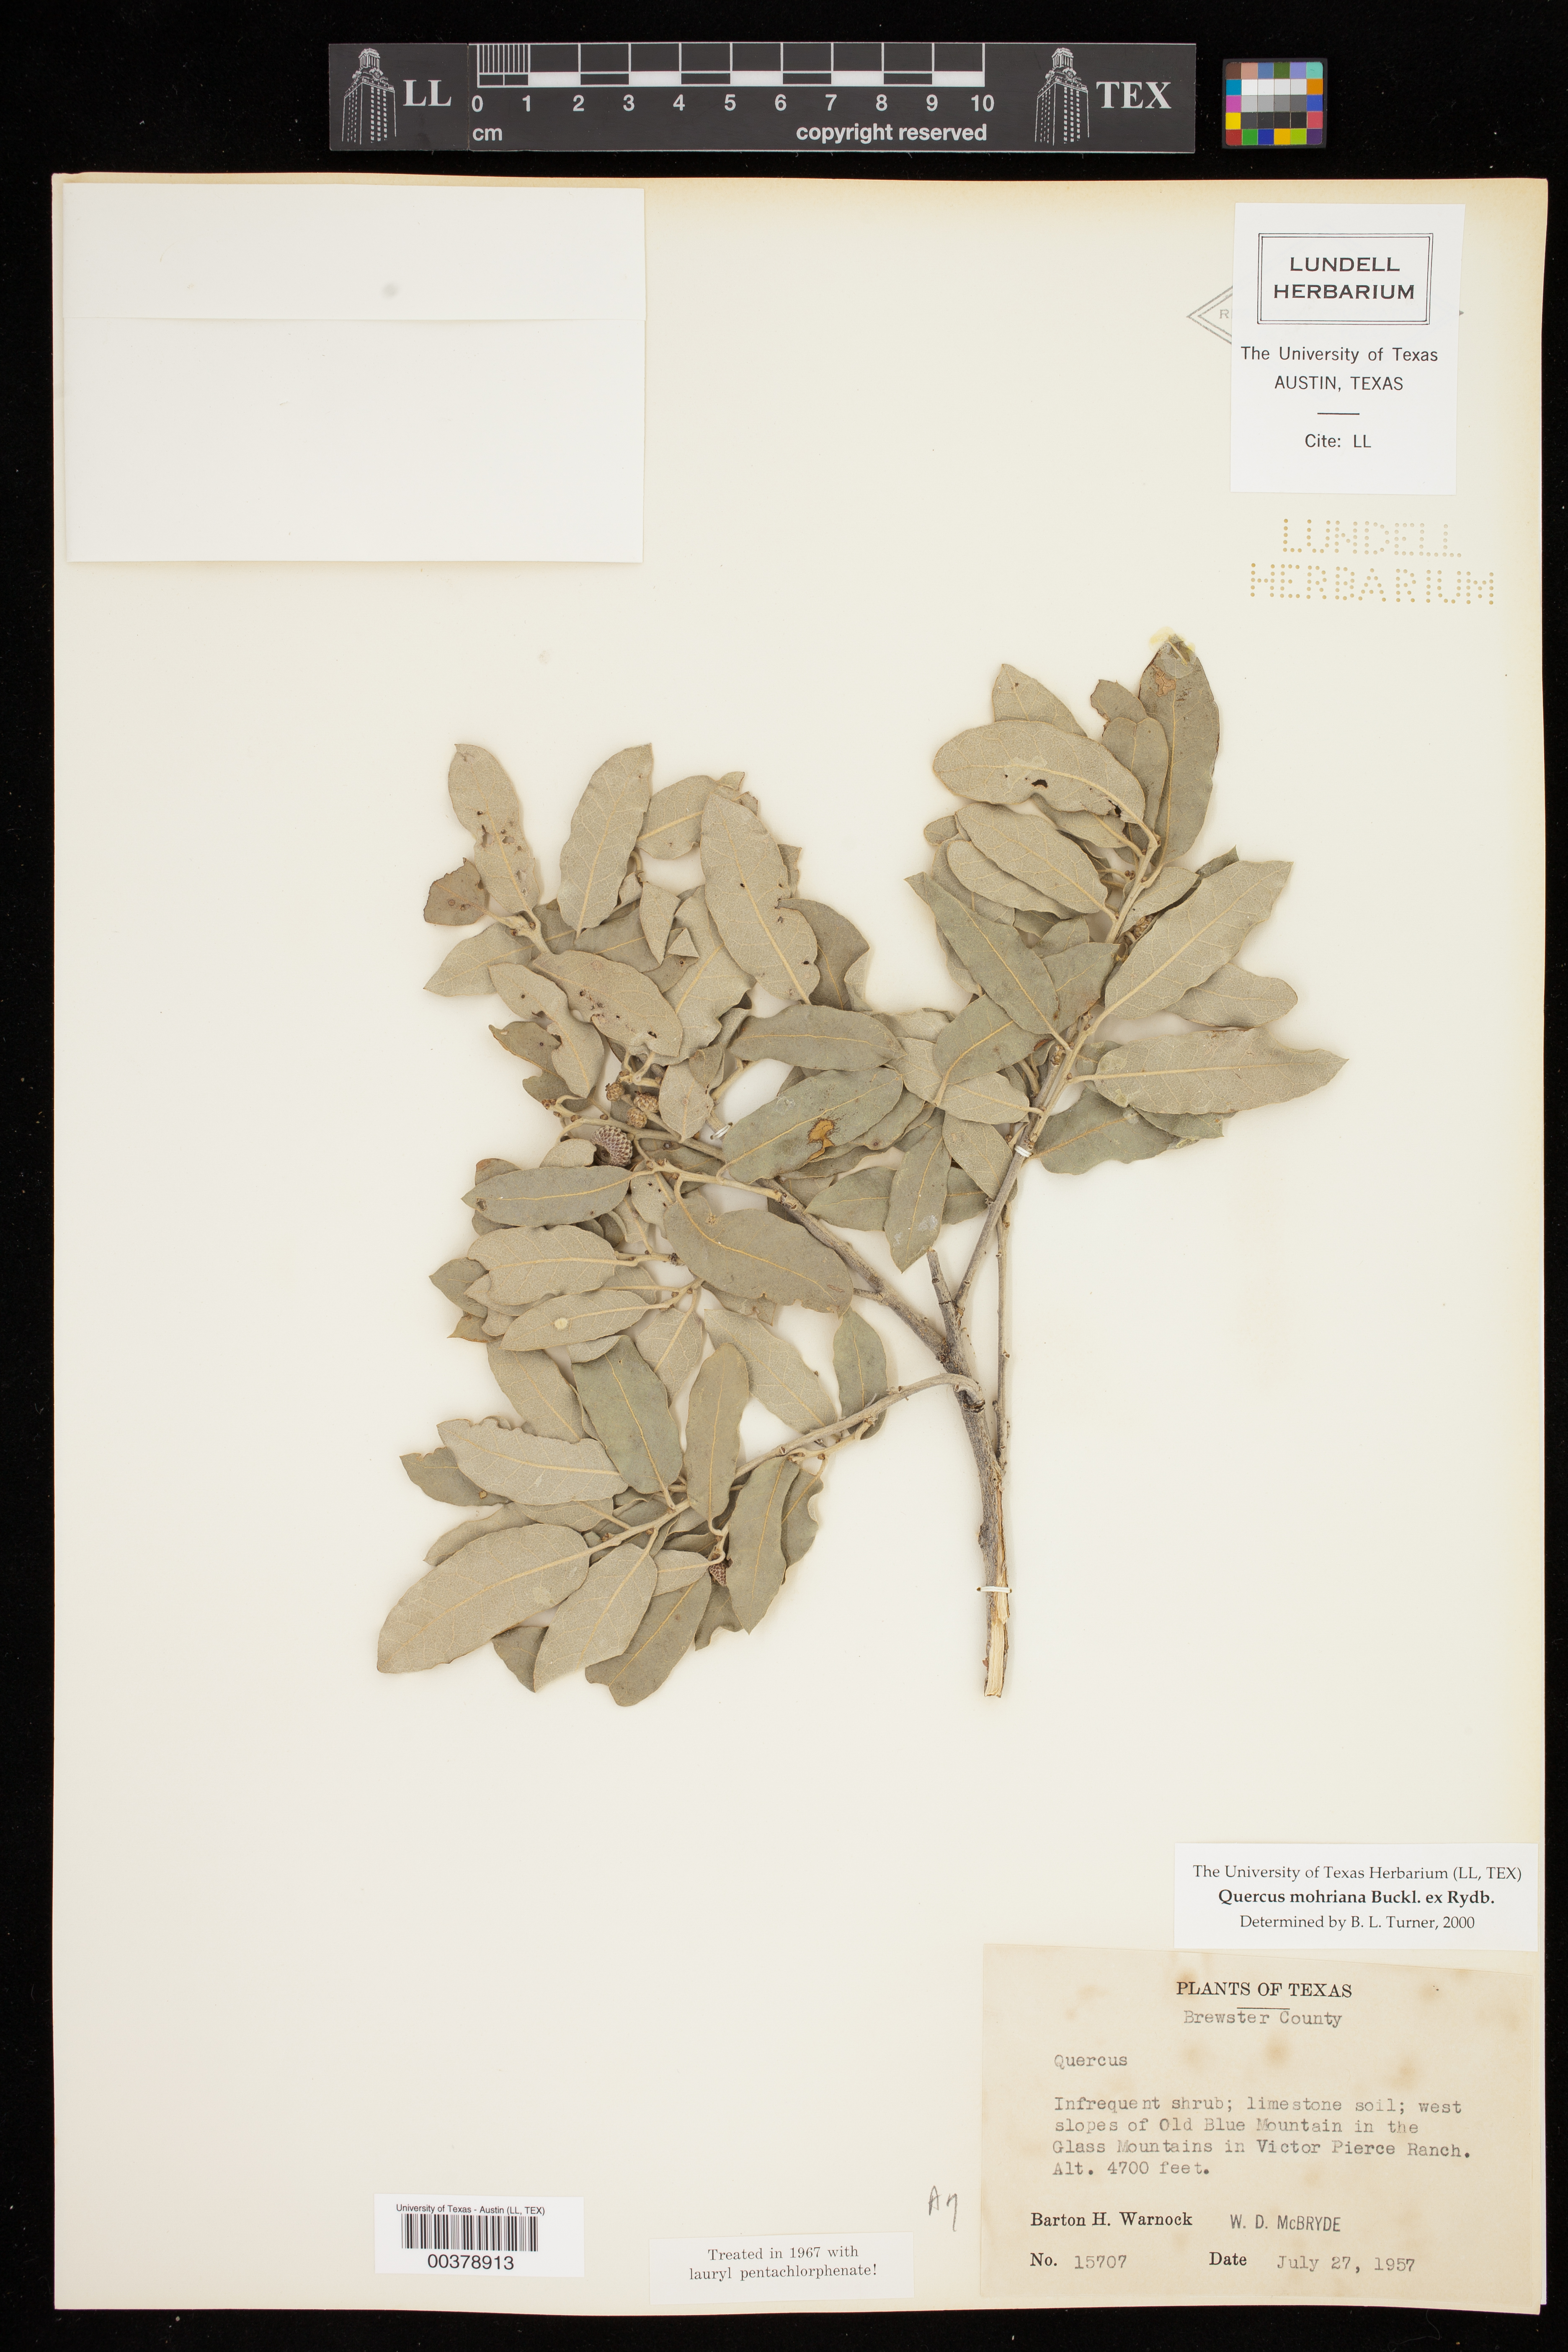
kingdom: Plantae
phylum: Tracheophyta
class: Magnoliopsida
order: Fagales
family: Fagaceae
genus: Quercus
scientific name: Quercus mohriana
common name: Mohr oak
